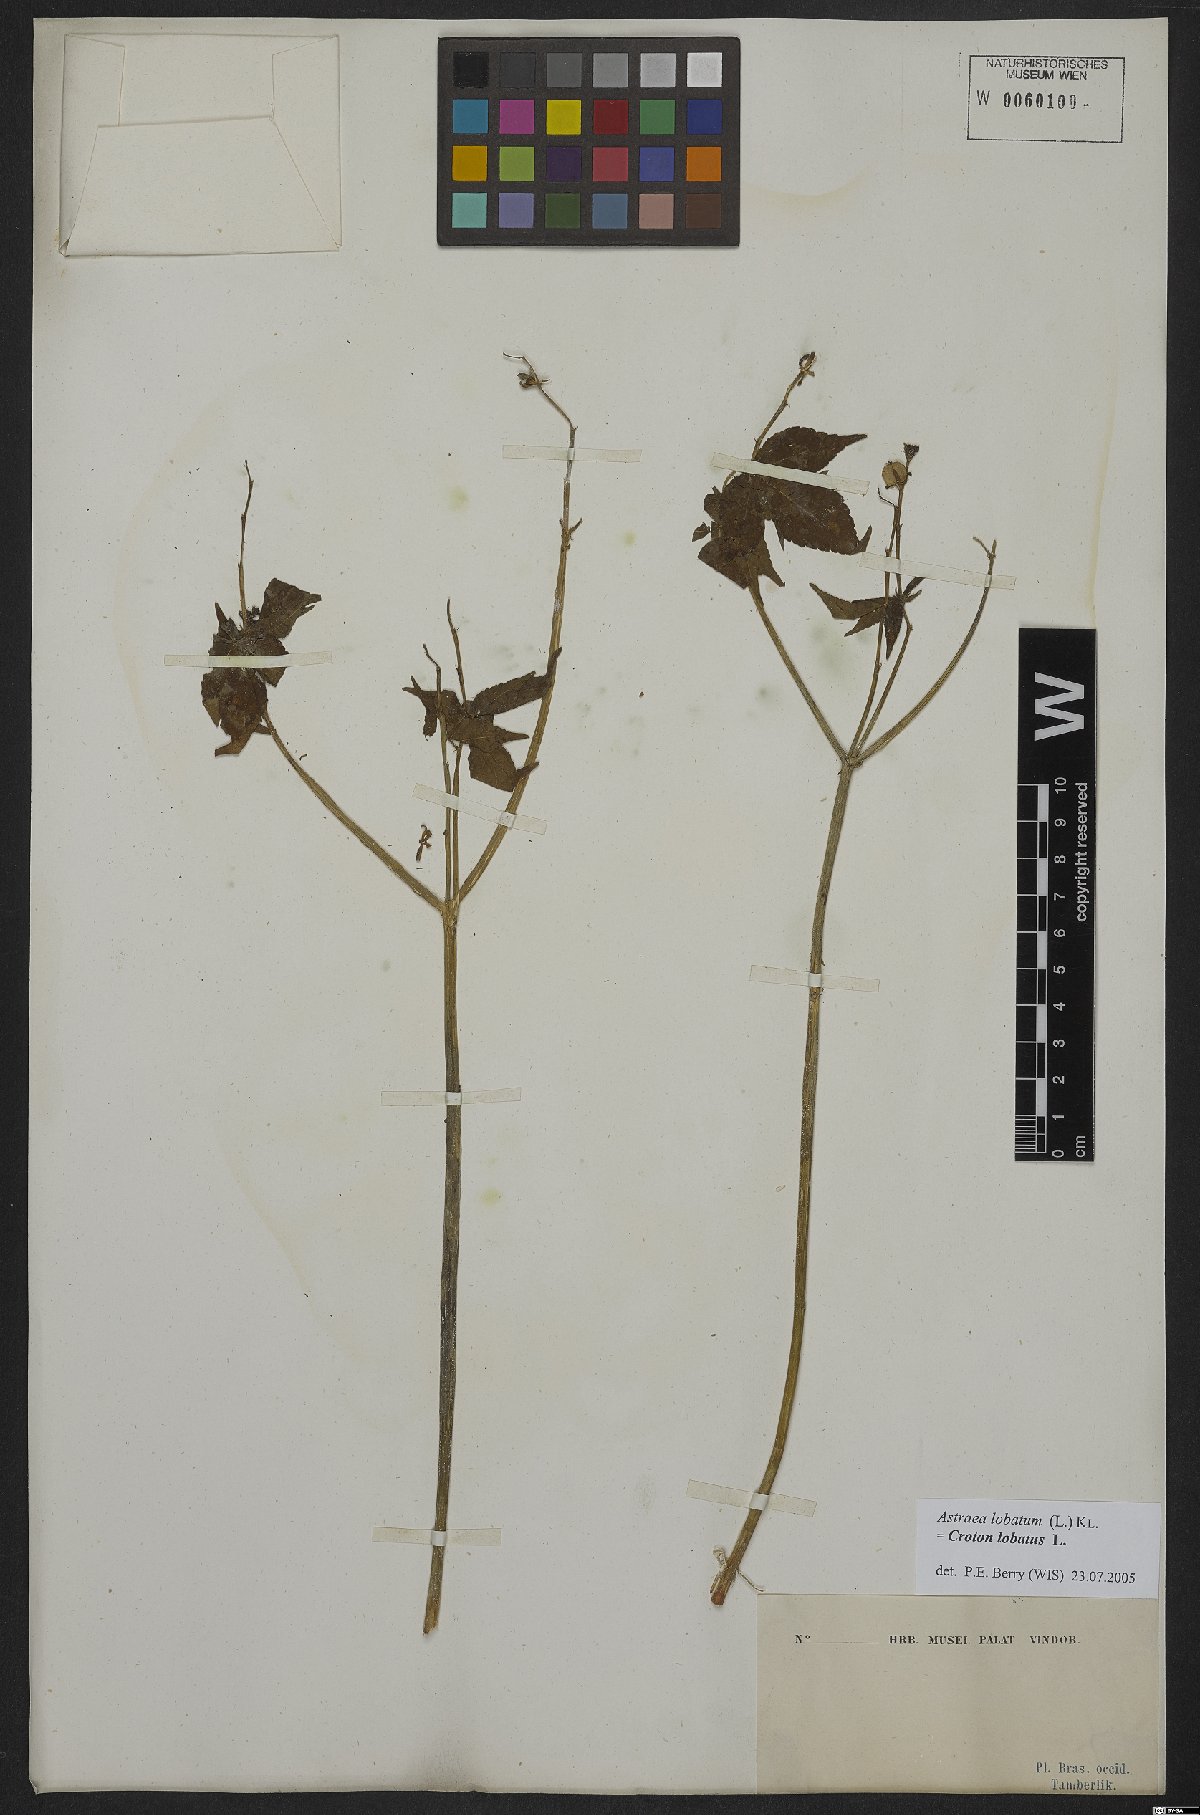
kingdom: Plantae
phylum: Tracheophyta
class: Magnoliopsida
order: Malpighiales
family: Euphorbiaceae
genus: Croton
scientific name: Croton lobatus
